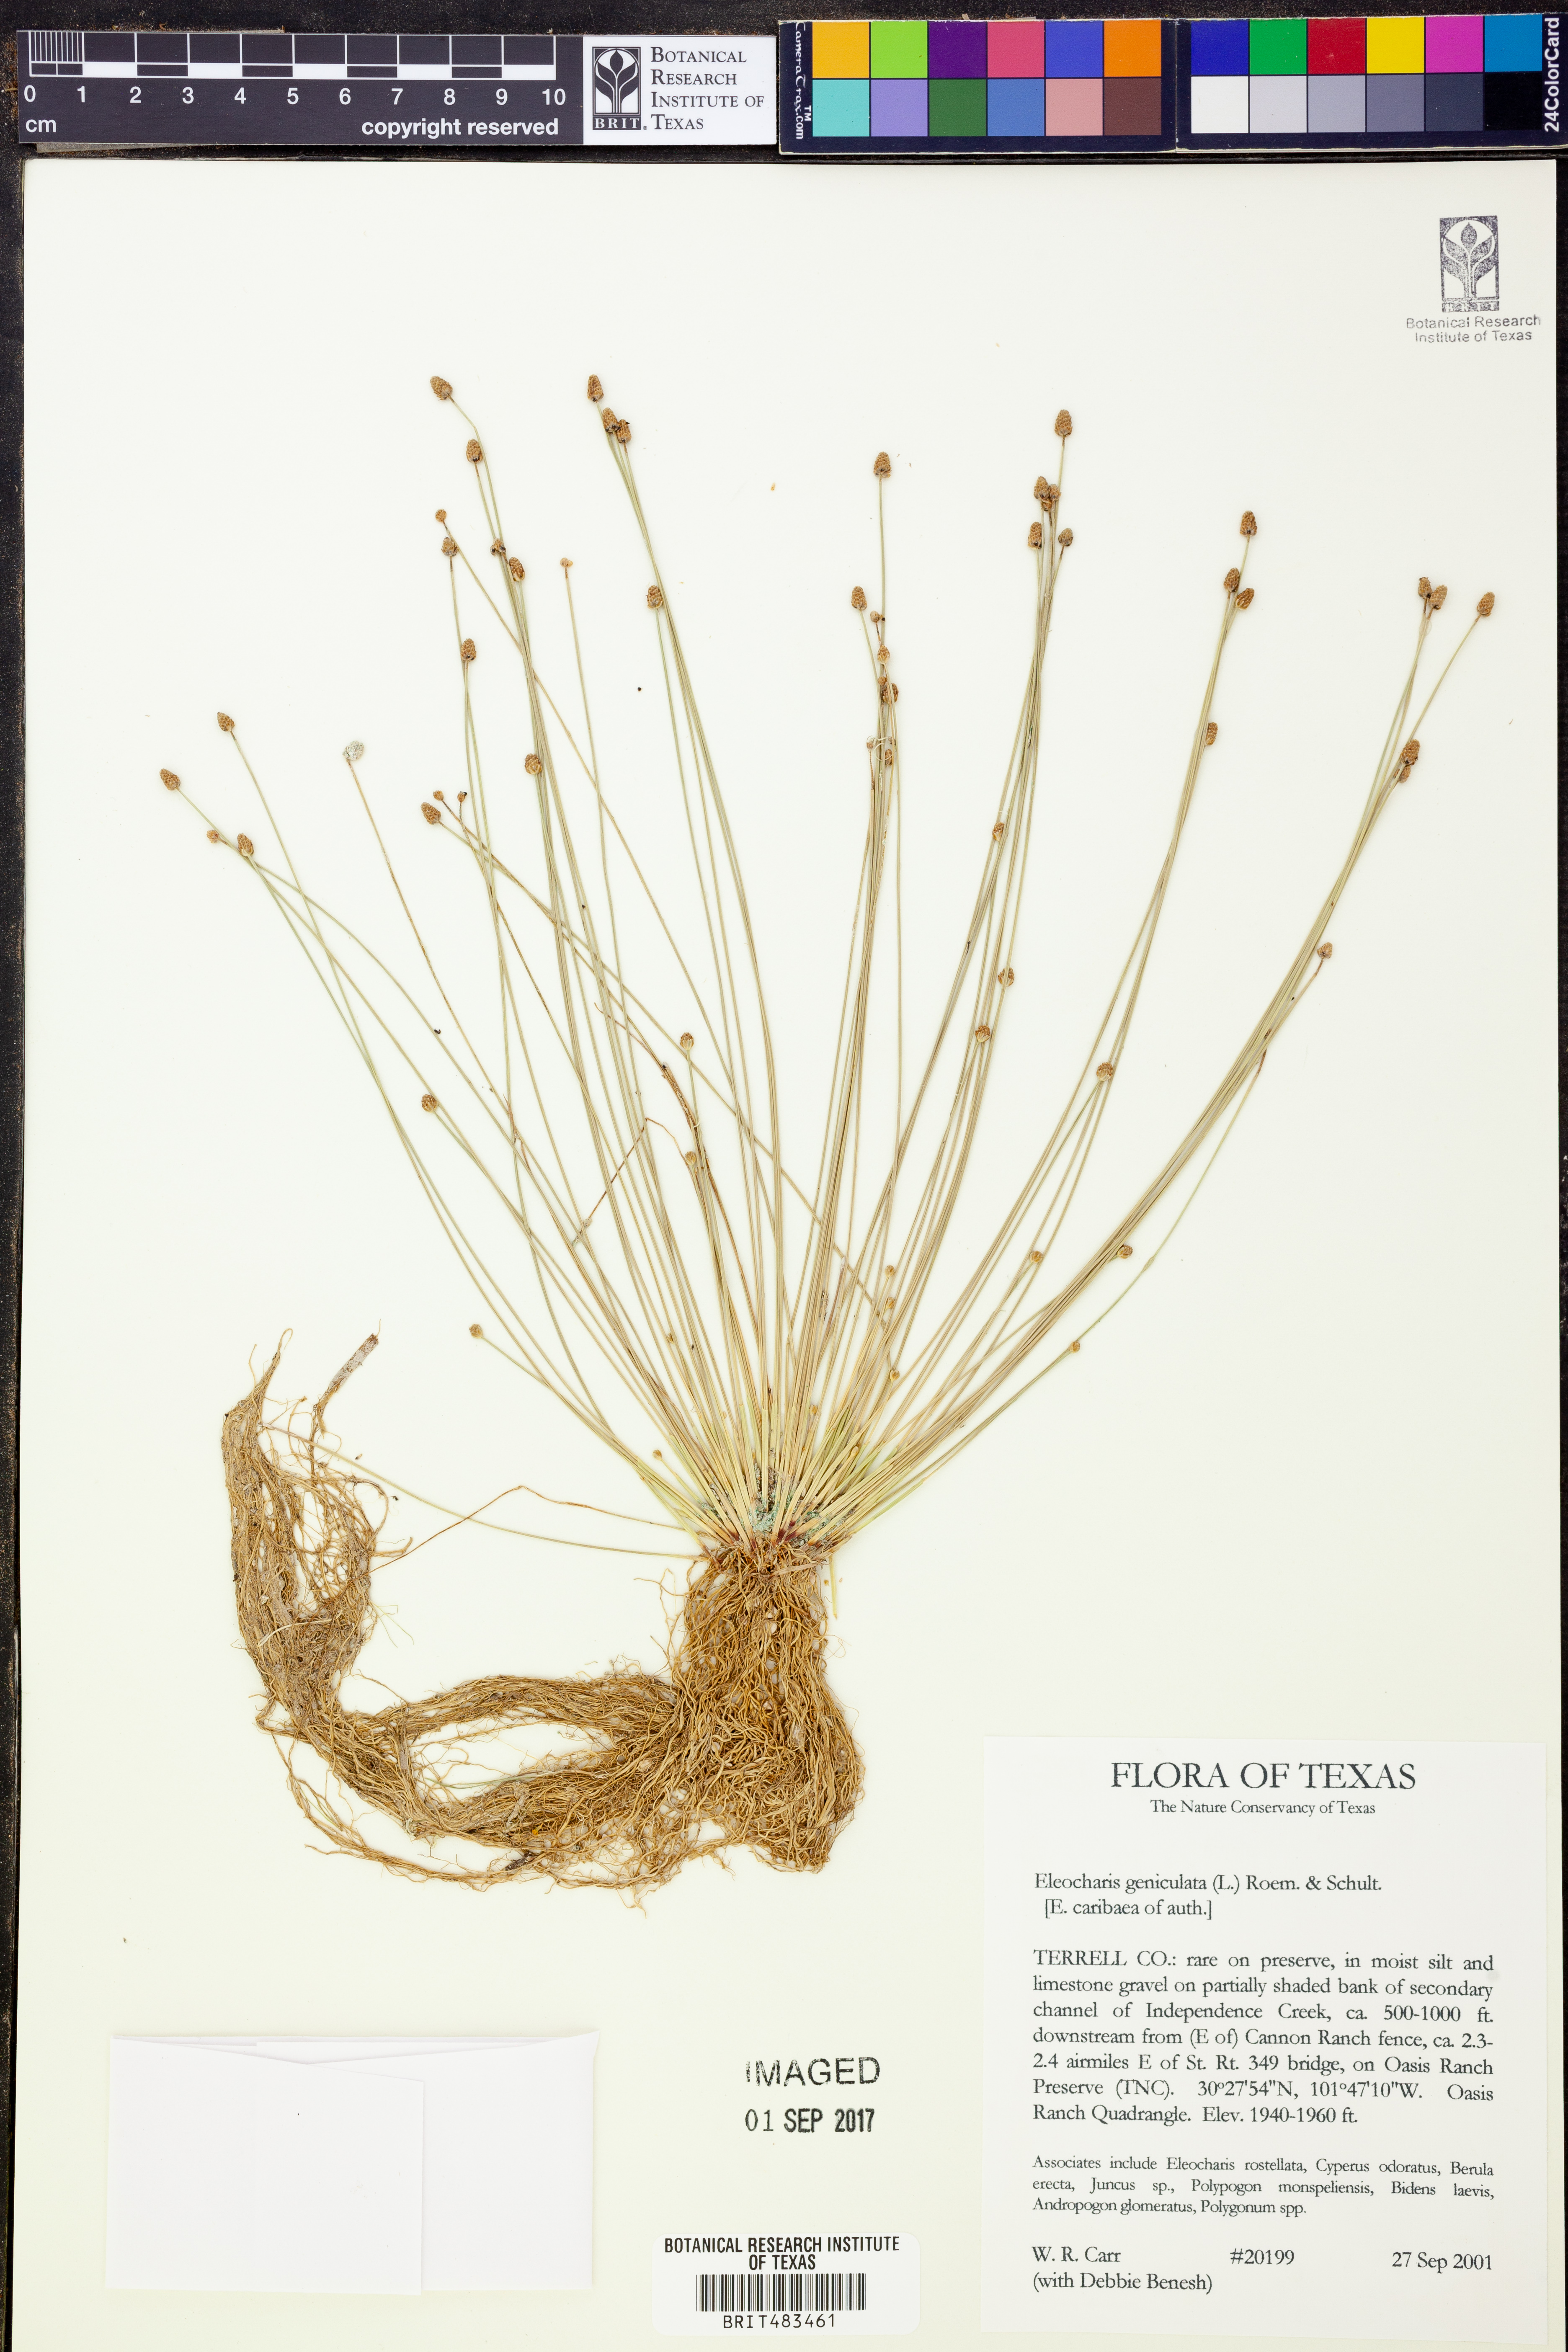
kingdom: Plantae
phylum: Tracheophyta
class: Liliopsida
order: Poales
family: Cyperaceae
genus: Eleocharis
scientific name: Eleocharis geniculata
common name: Canada spikesedge
